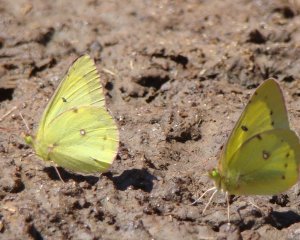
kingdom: Animalia
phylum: Arthropoda
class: Insecta
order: Lepidoptera
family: Pieridae
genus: Colias
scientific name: Colias philodice
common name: Clouded Sulphur
